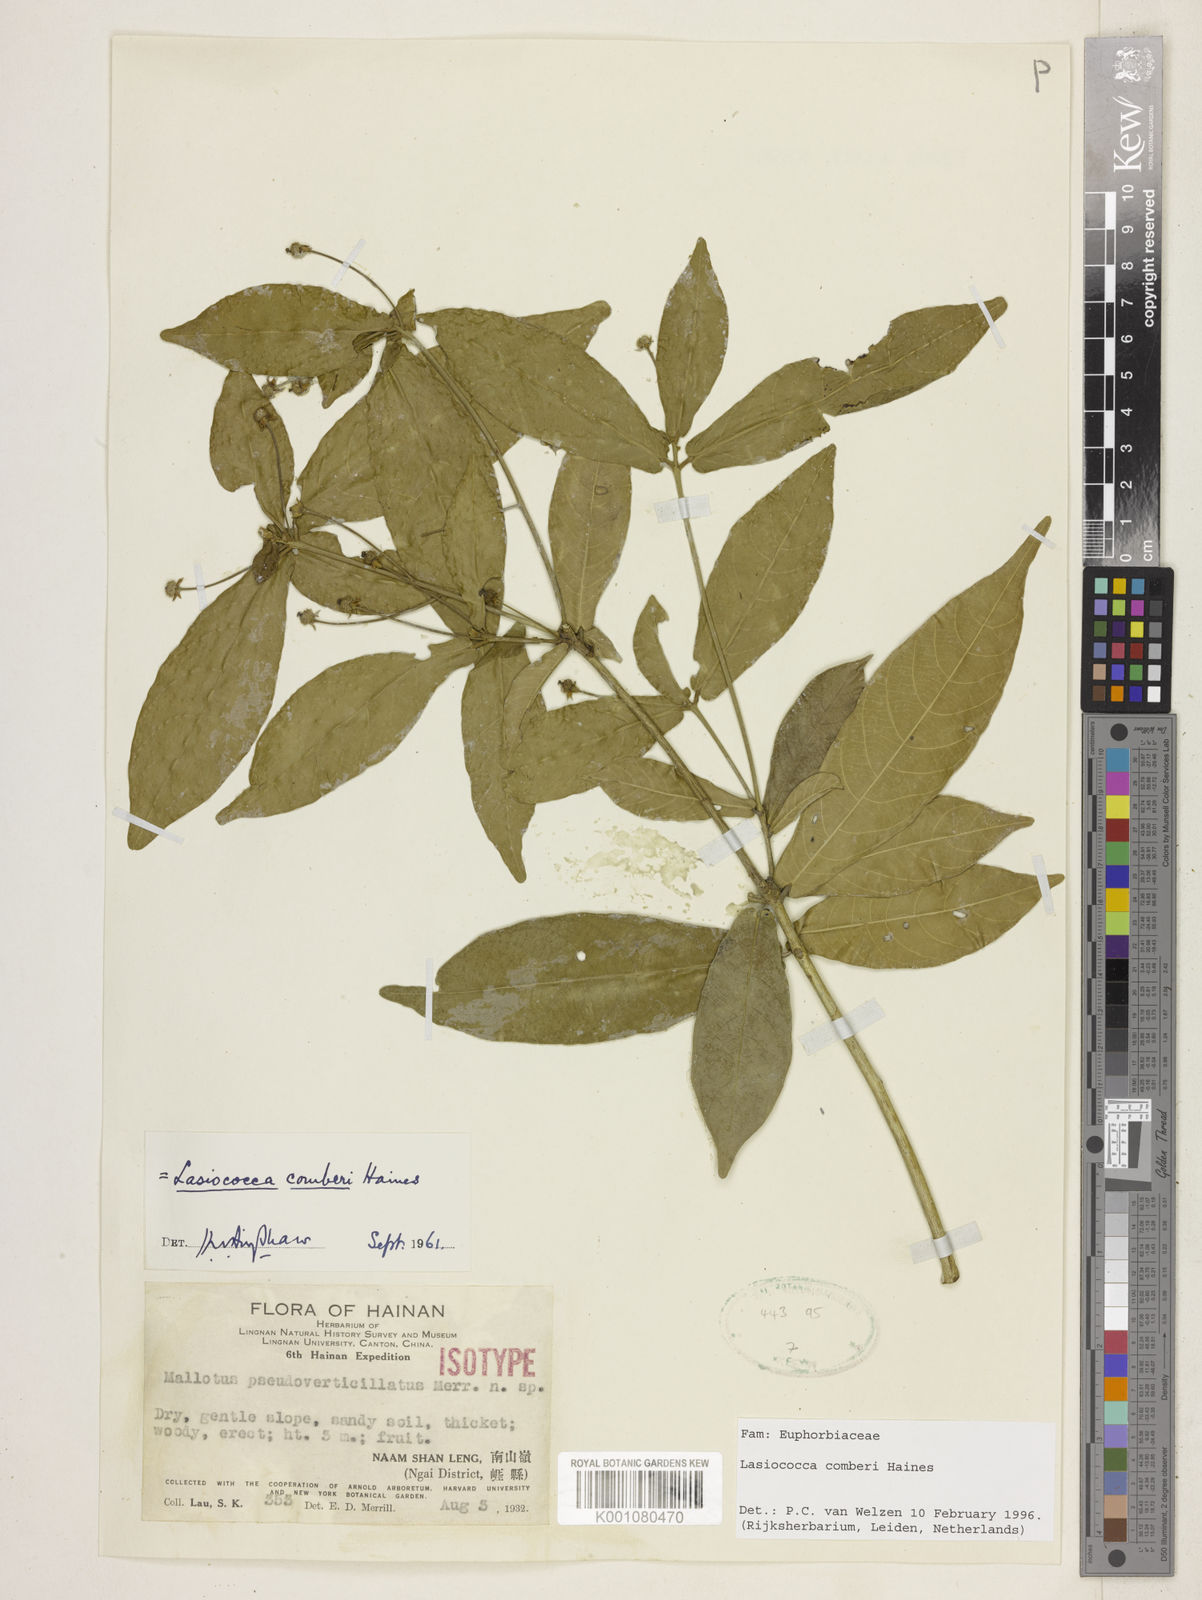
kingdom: Plantae
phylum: Tracheophyta
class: Magnoliopsida
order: Malpighiales
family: Euphorbiaceae
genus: Lasiococca
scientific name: Lasiococca comberi
